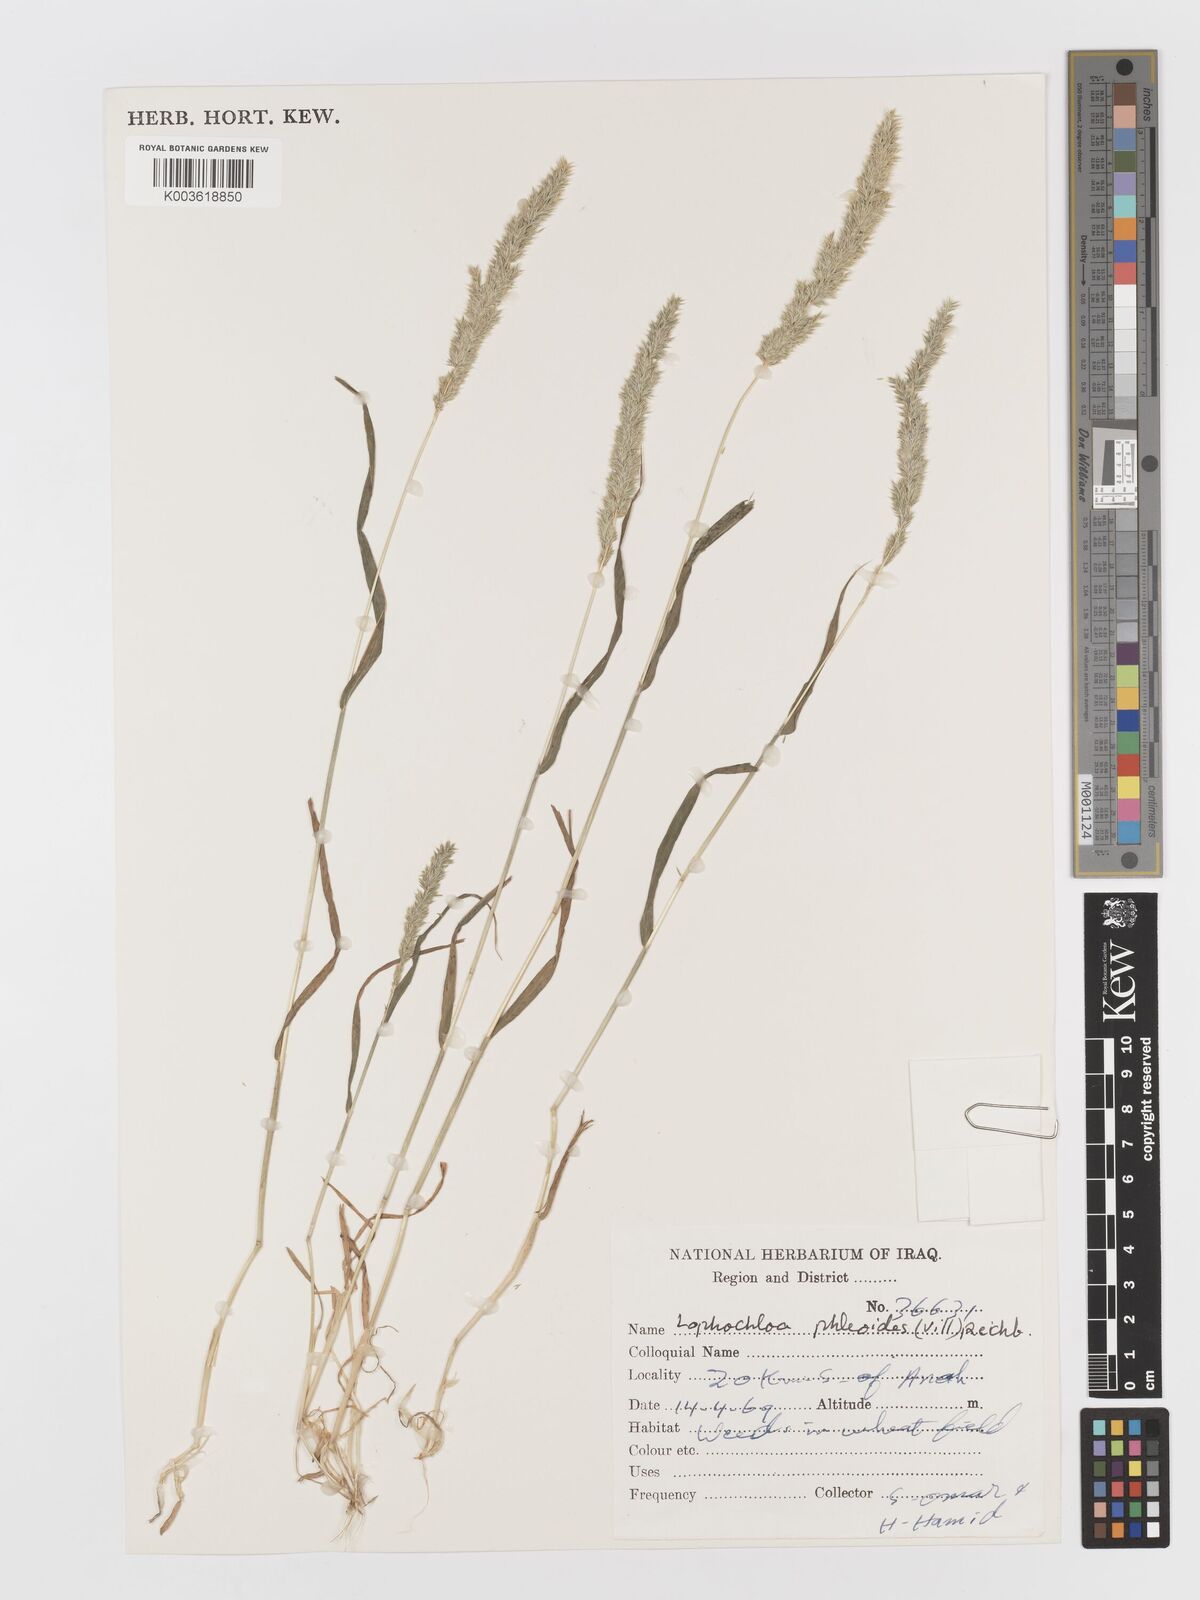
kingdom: Plantae
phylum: Tracheophyta
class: Liliopsida
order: Poales
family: Poaceae
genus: Rostraria
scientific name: Rostraria cristata
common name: Mediterranean hair-grass
